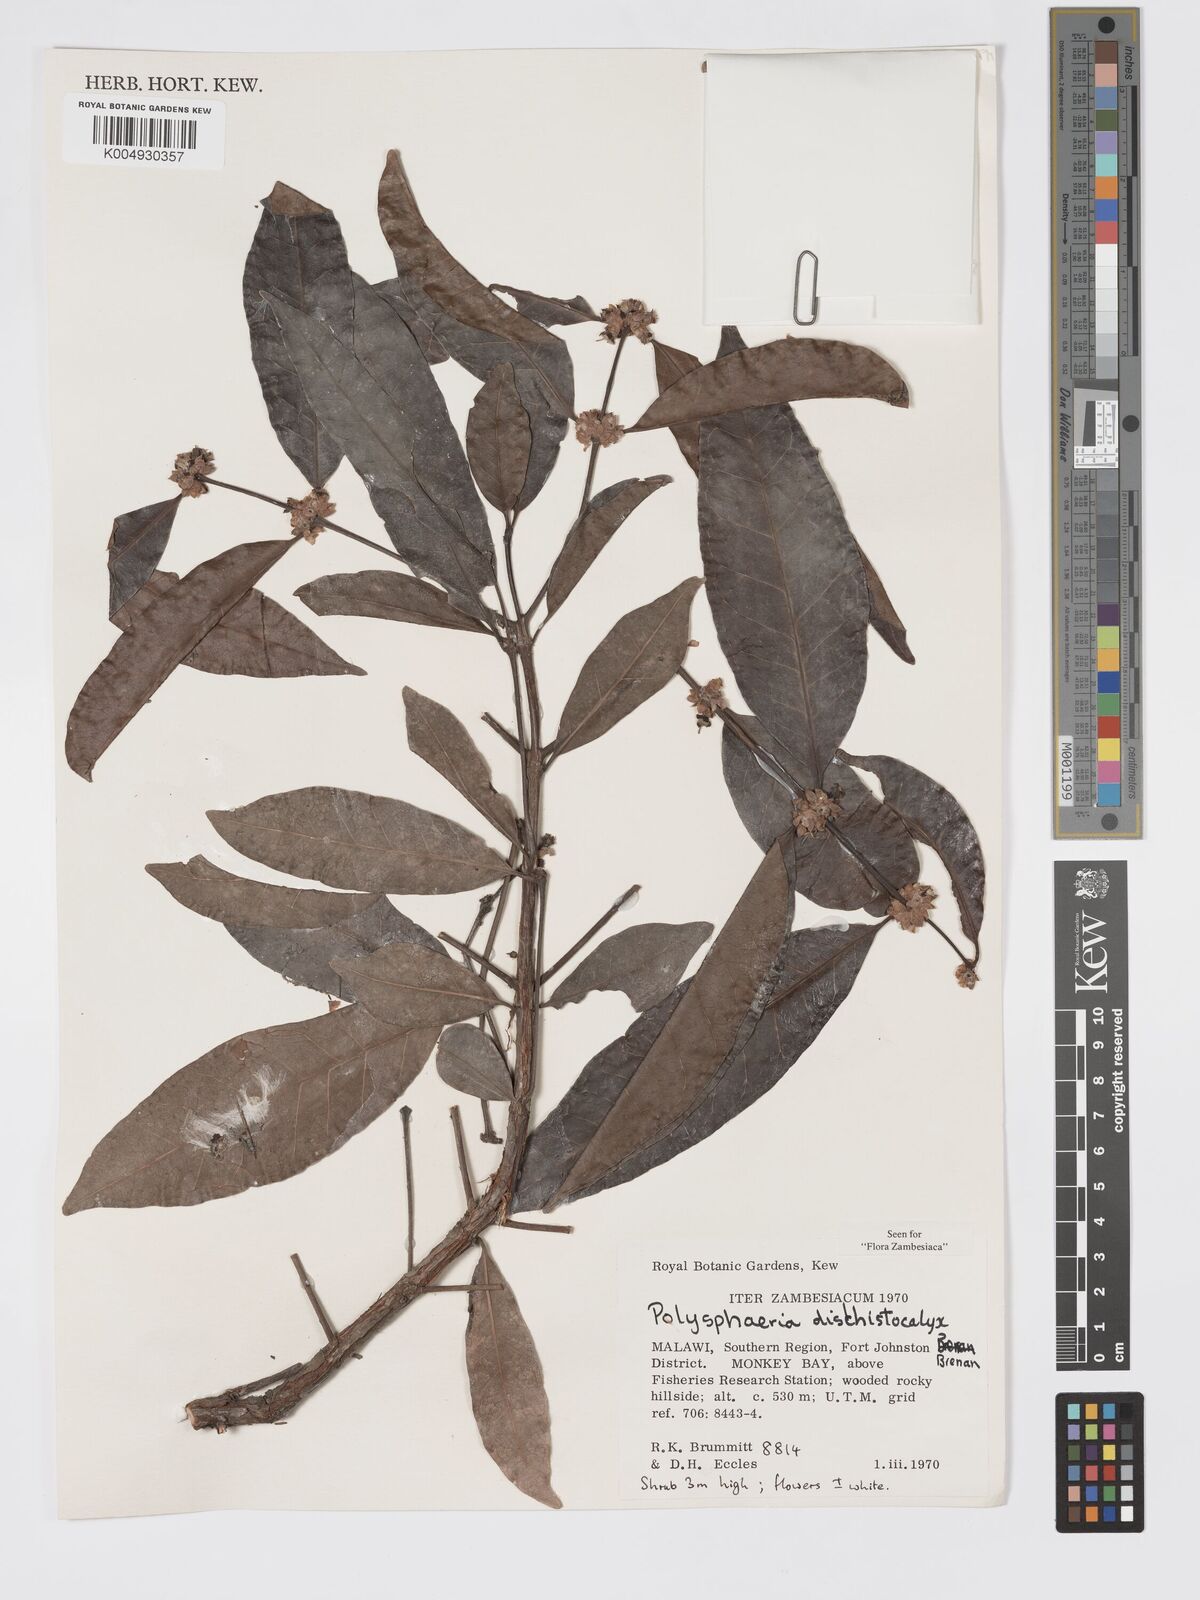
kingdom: Plantae
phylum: Tracheophyta
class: Magnoliopsida
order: Gentianales
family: Rubiaceae
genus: Polysphaeria
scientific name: Polysphaeria dischistocalyx
